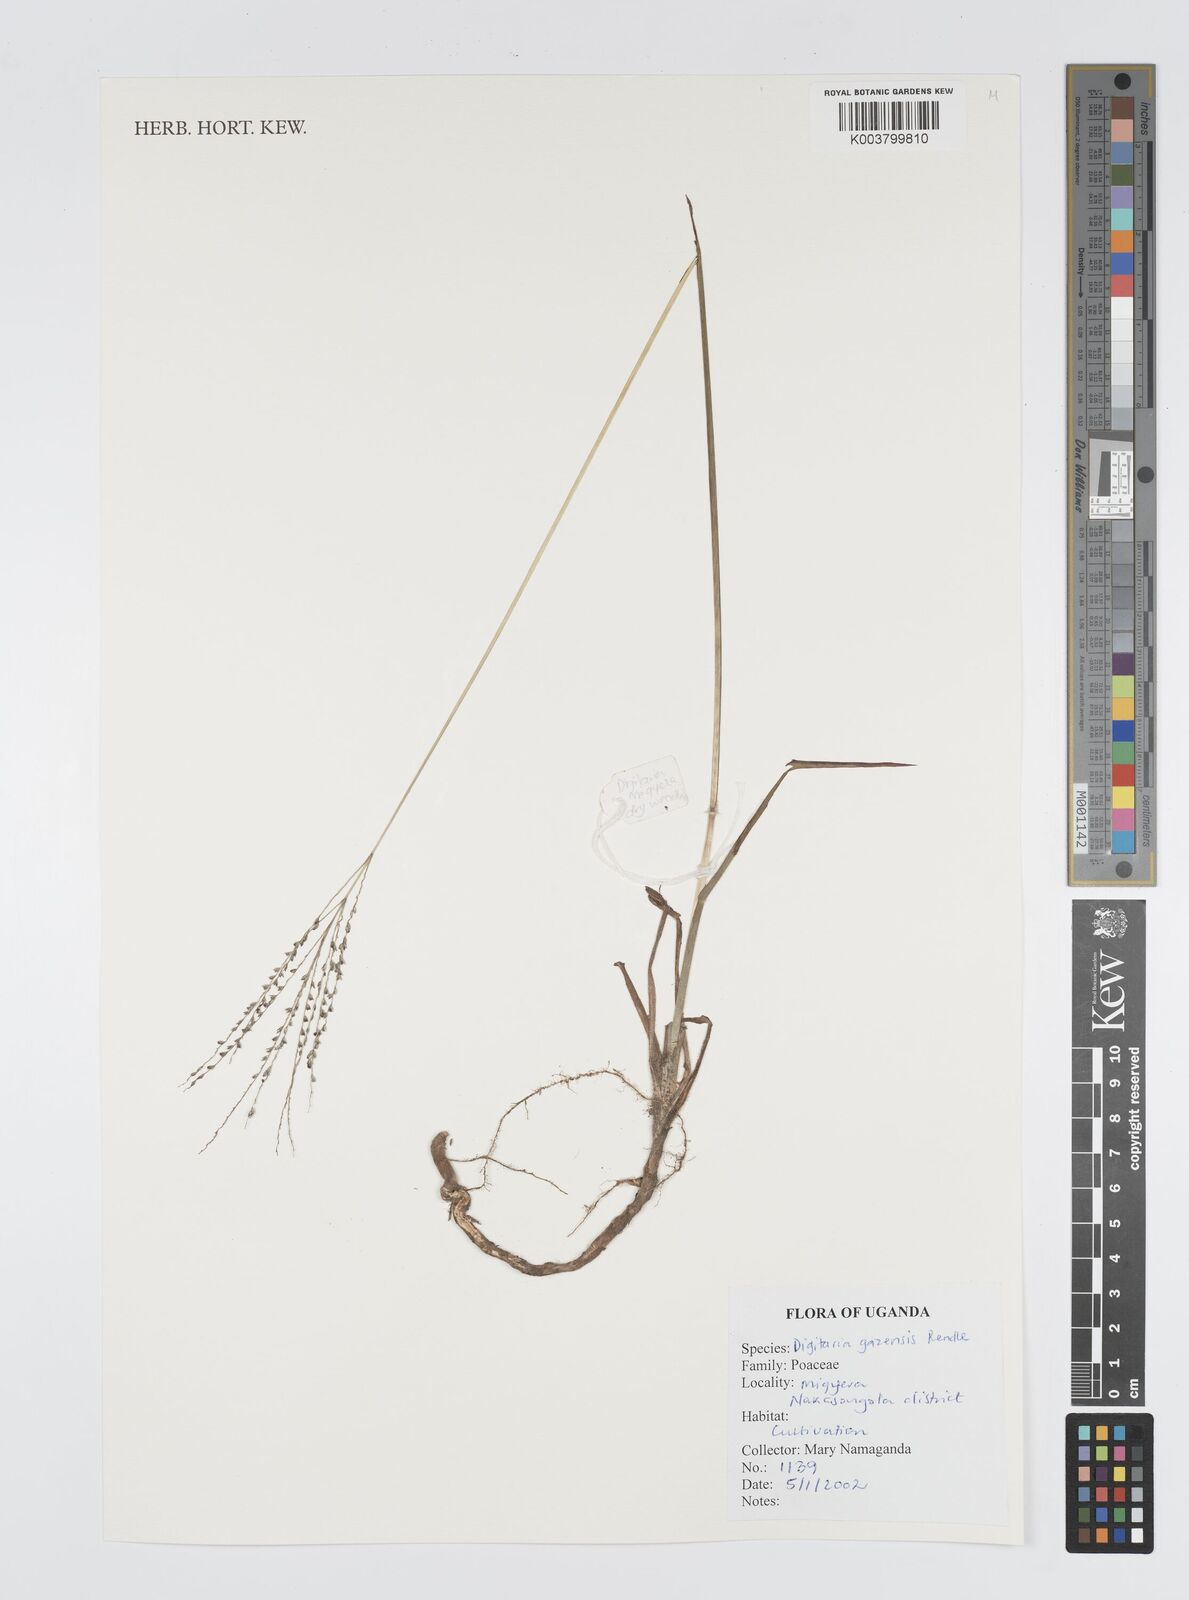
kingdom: Plantae
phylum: Tracheophyta
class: Liliopsida
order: Poales
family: Poaceae
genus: Digitaria
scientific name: Digitaria gazensis
